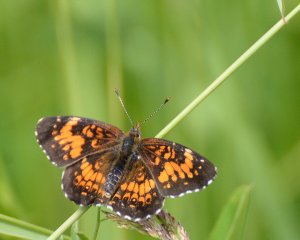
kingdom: Animalia
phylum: Arthropoda
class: Insecta
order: Lepidoptera
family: Nymphalidae
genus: Chlosyne
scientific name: Chlosyne harrisii
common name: Harris's Checkerspot
